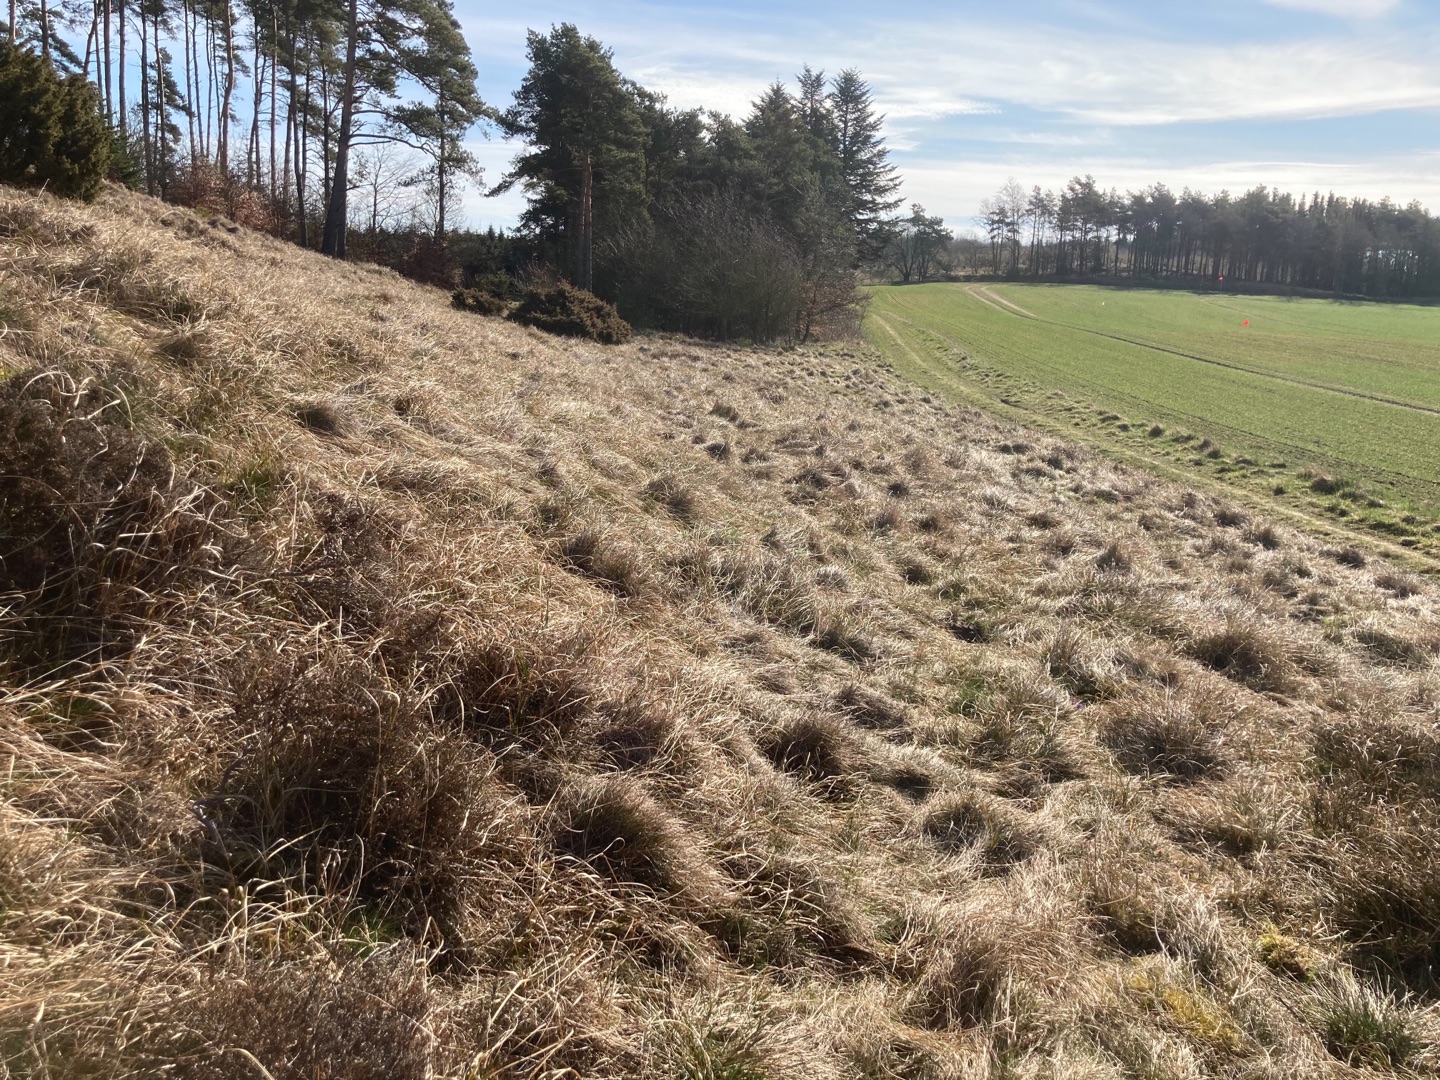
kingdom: Plantae
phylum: Tracheophyta
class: Magnoliopsida
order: Ranunculales
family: Ranunculaceae
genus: Pulsatilla
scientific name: Pulsatilla vulgaris
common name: Opret kobjælde
